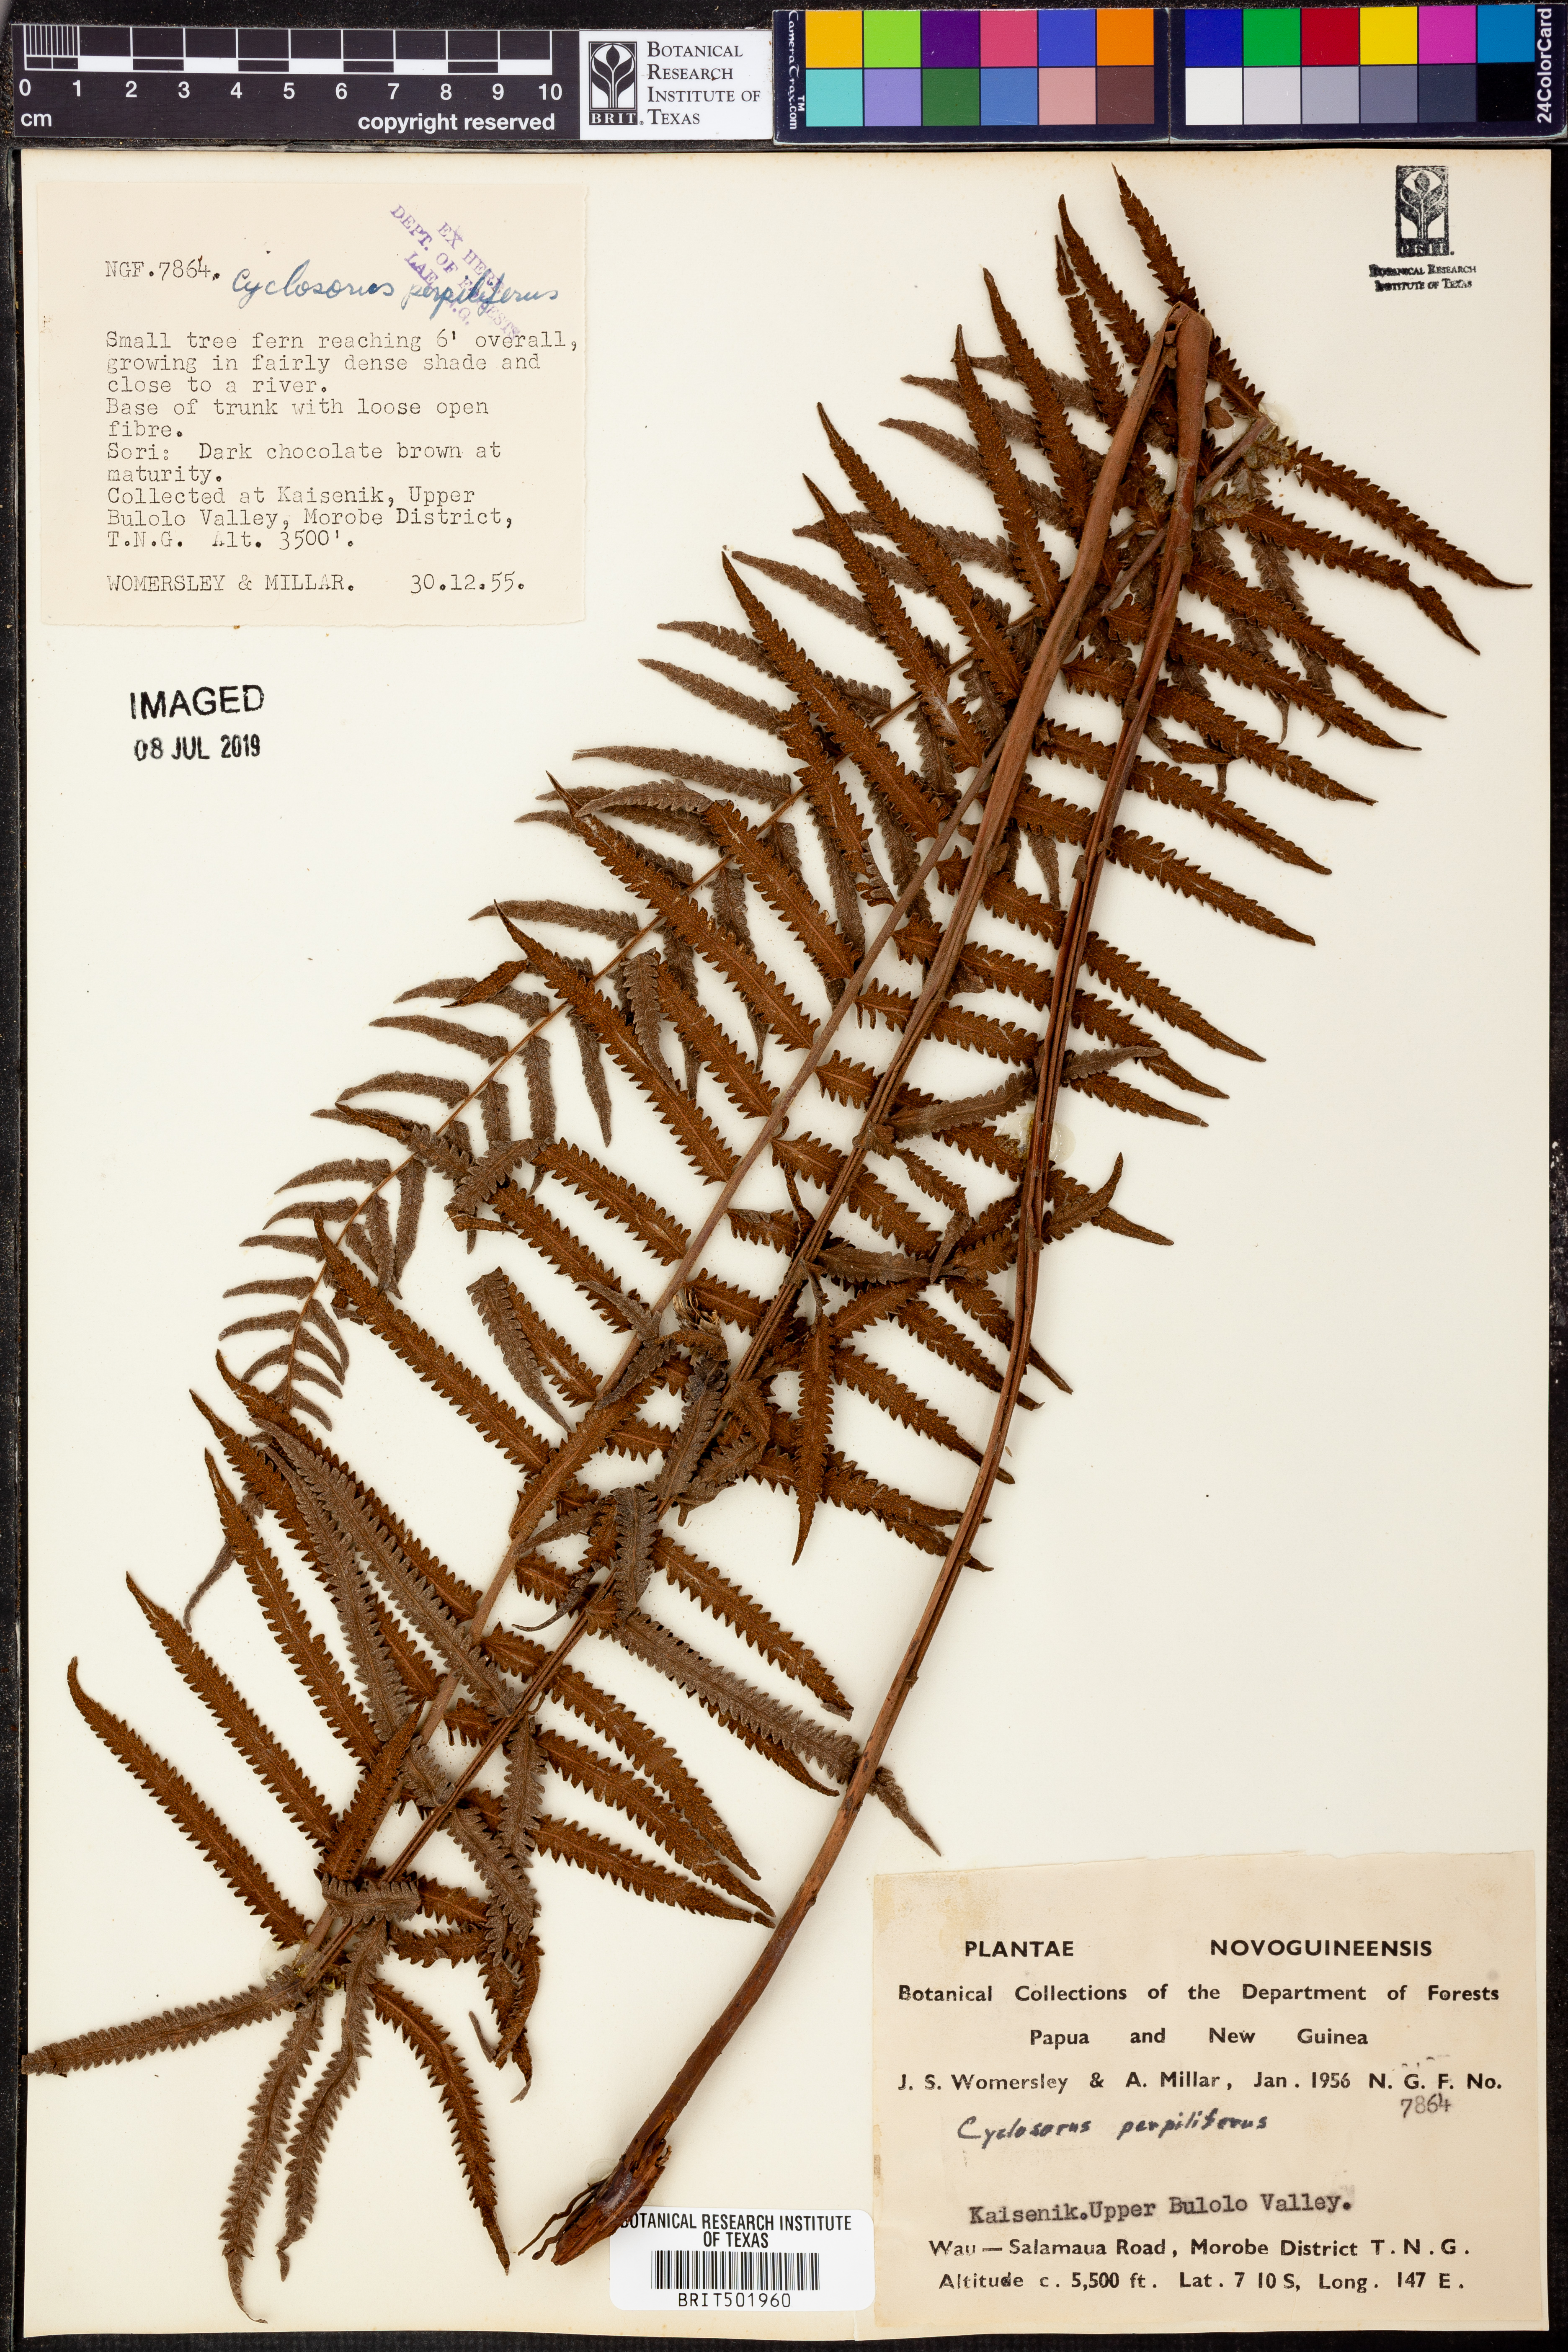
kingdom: Plantae
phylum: Tracheophyta
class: Polypodiopsida
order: Polypodiales
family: Thelypteridaceae
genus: Sphaerostephanos
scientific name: Sphaerostephanos acrostichoides
